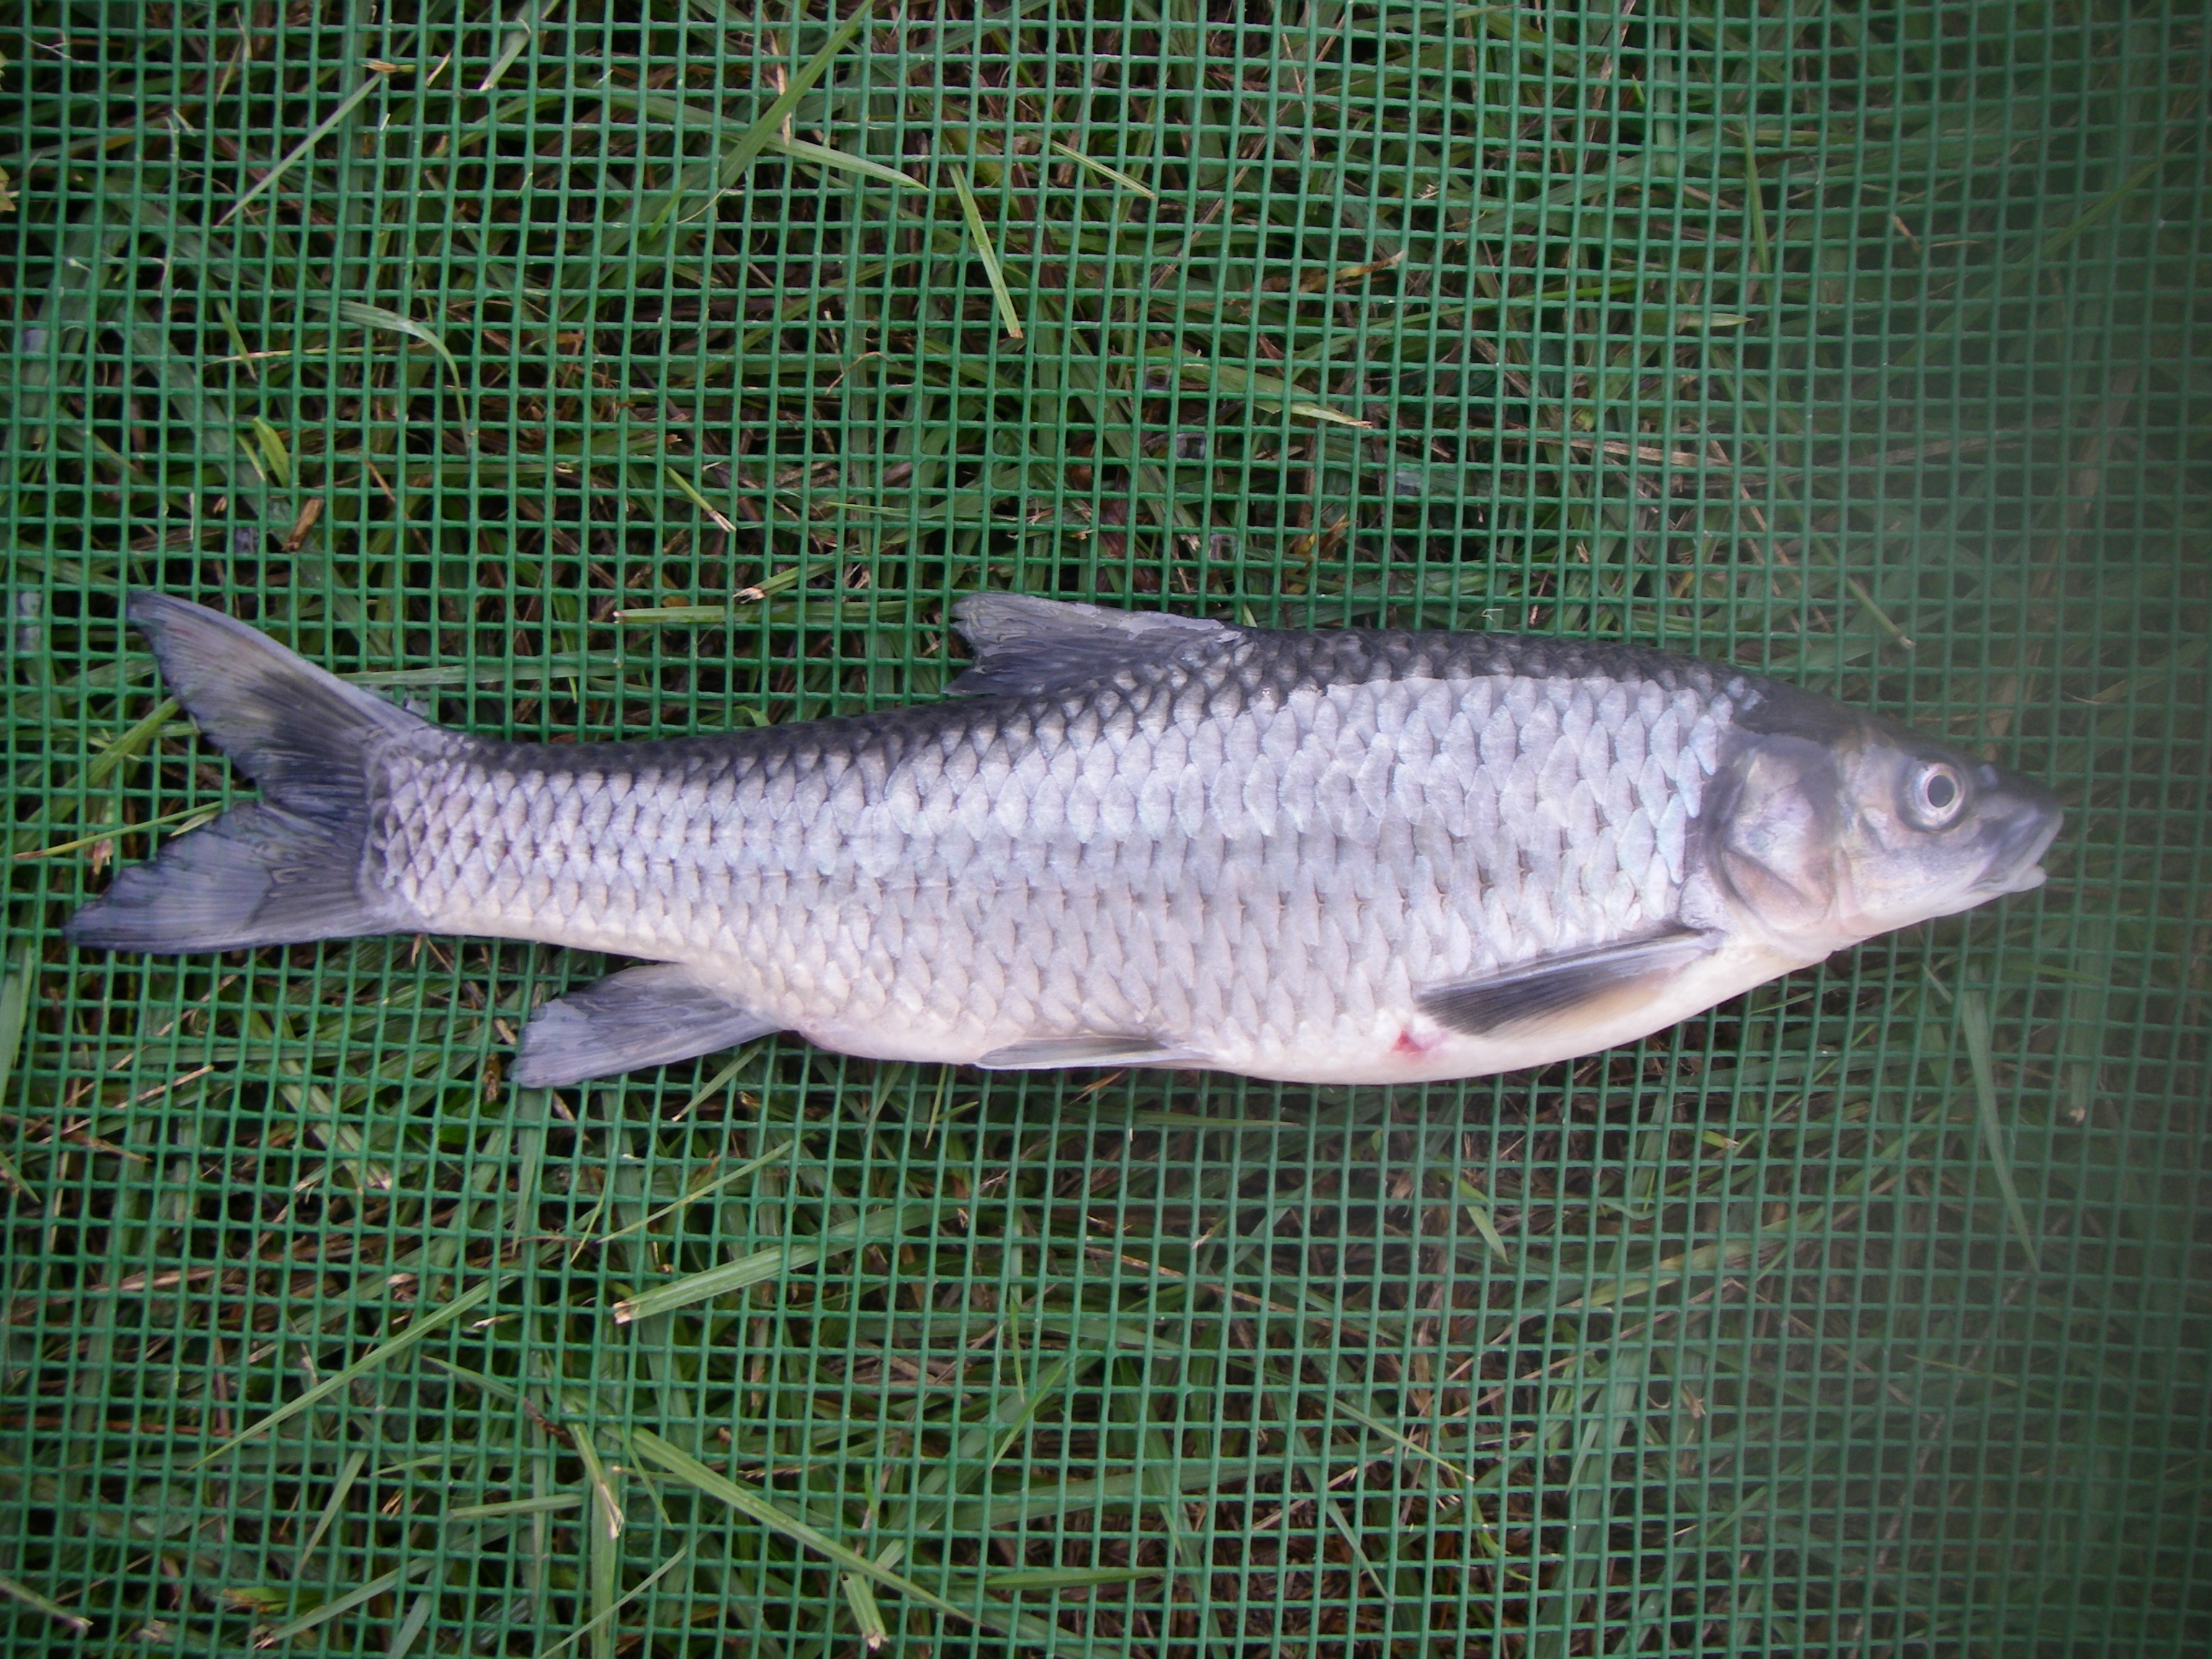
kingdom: Animalia
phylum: Chordata
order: Cypriniformes
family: Cyprinidae
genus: Labeobarbus
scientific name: Labeobarbus natalensis
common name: Scaly
